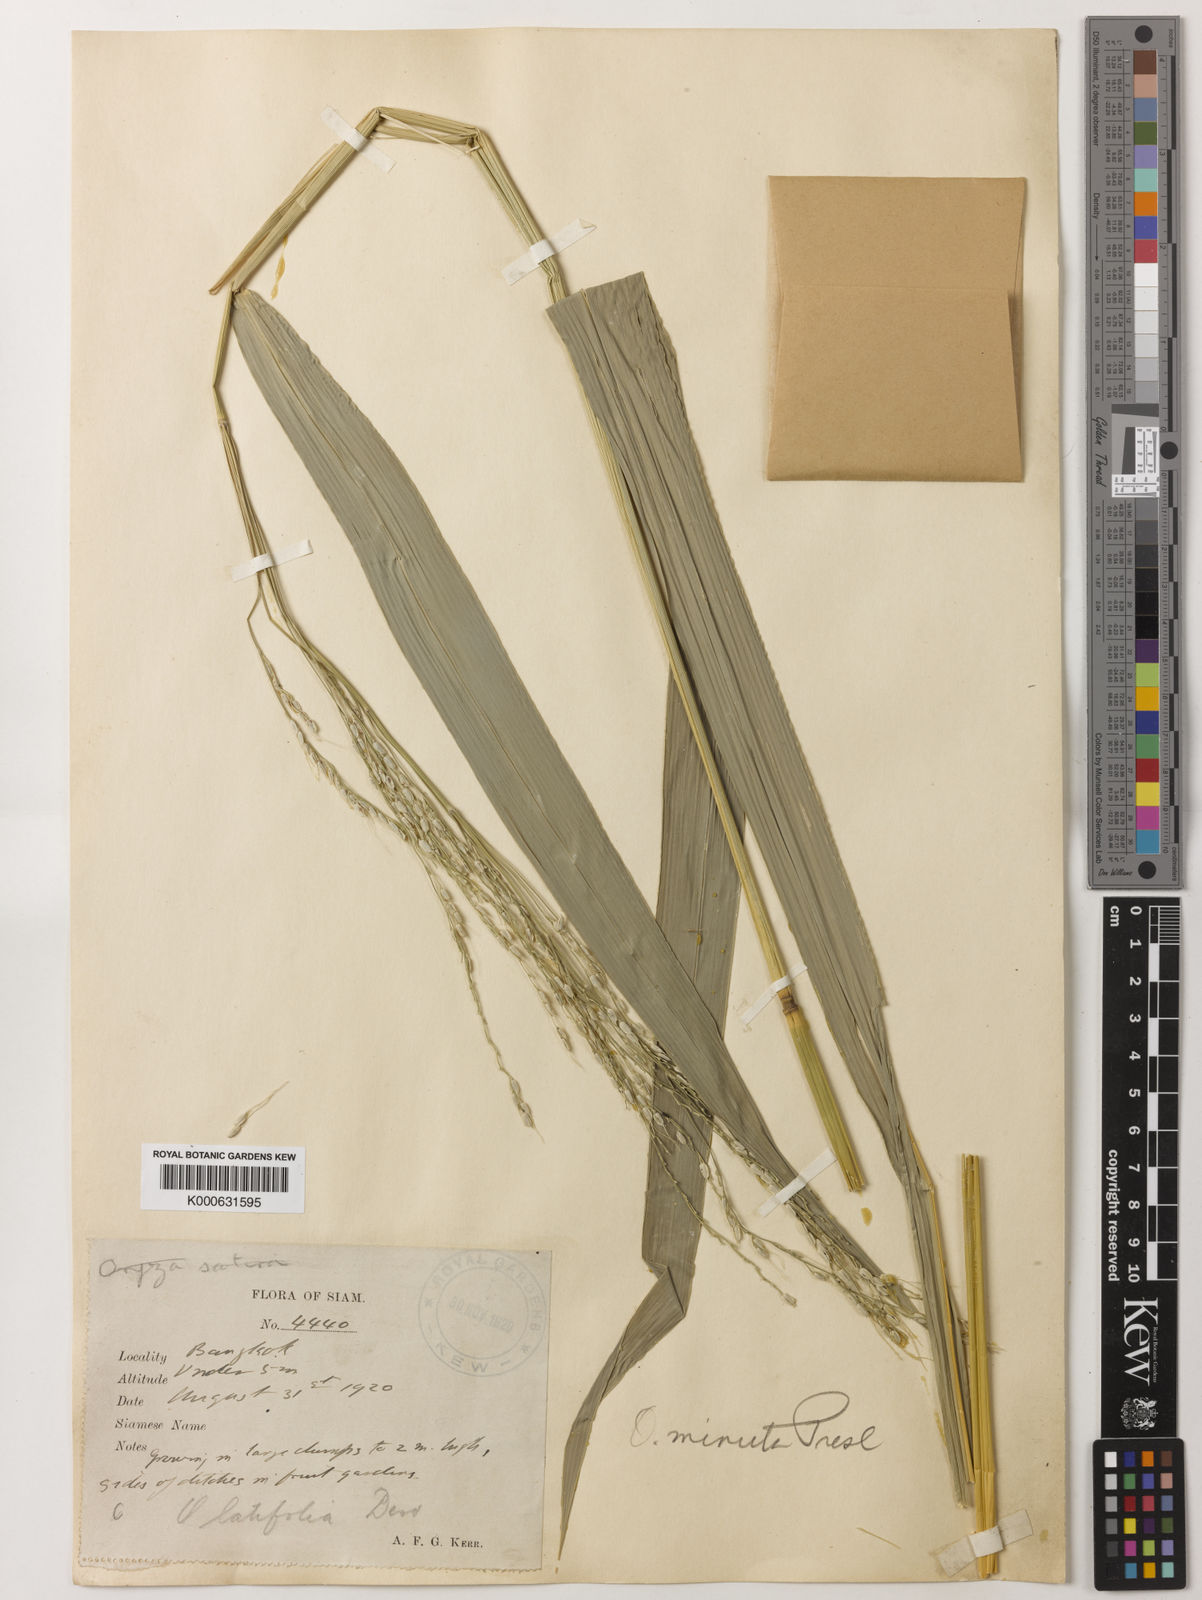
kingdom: Plantae
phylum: Tracheophyta
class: Liliopsida
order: Poales
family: Poaceae
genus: Oryza
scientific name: Oryza minuta
